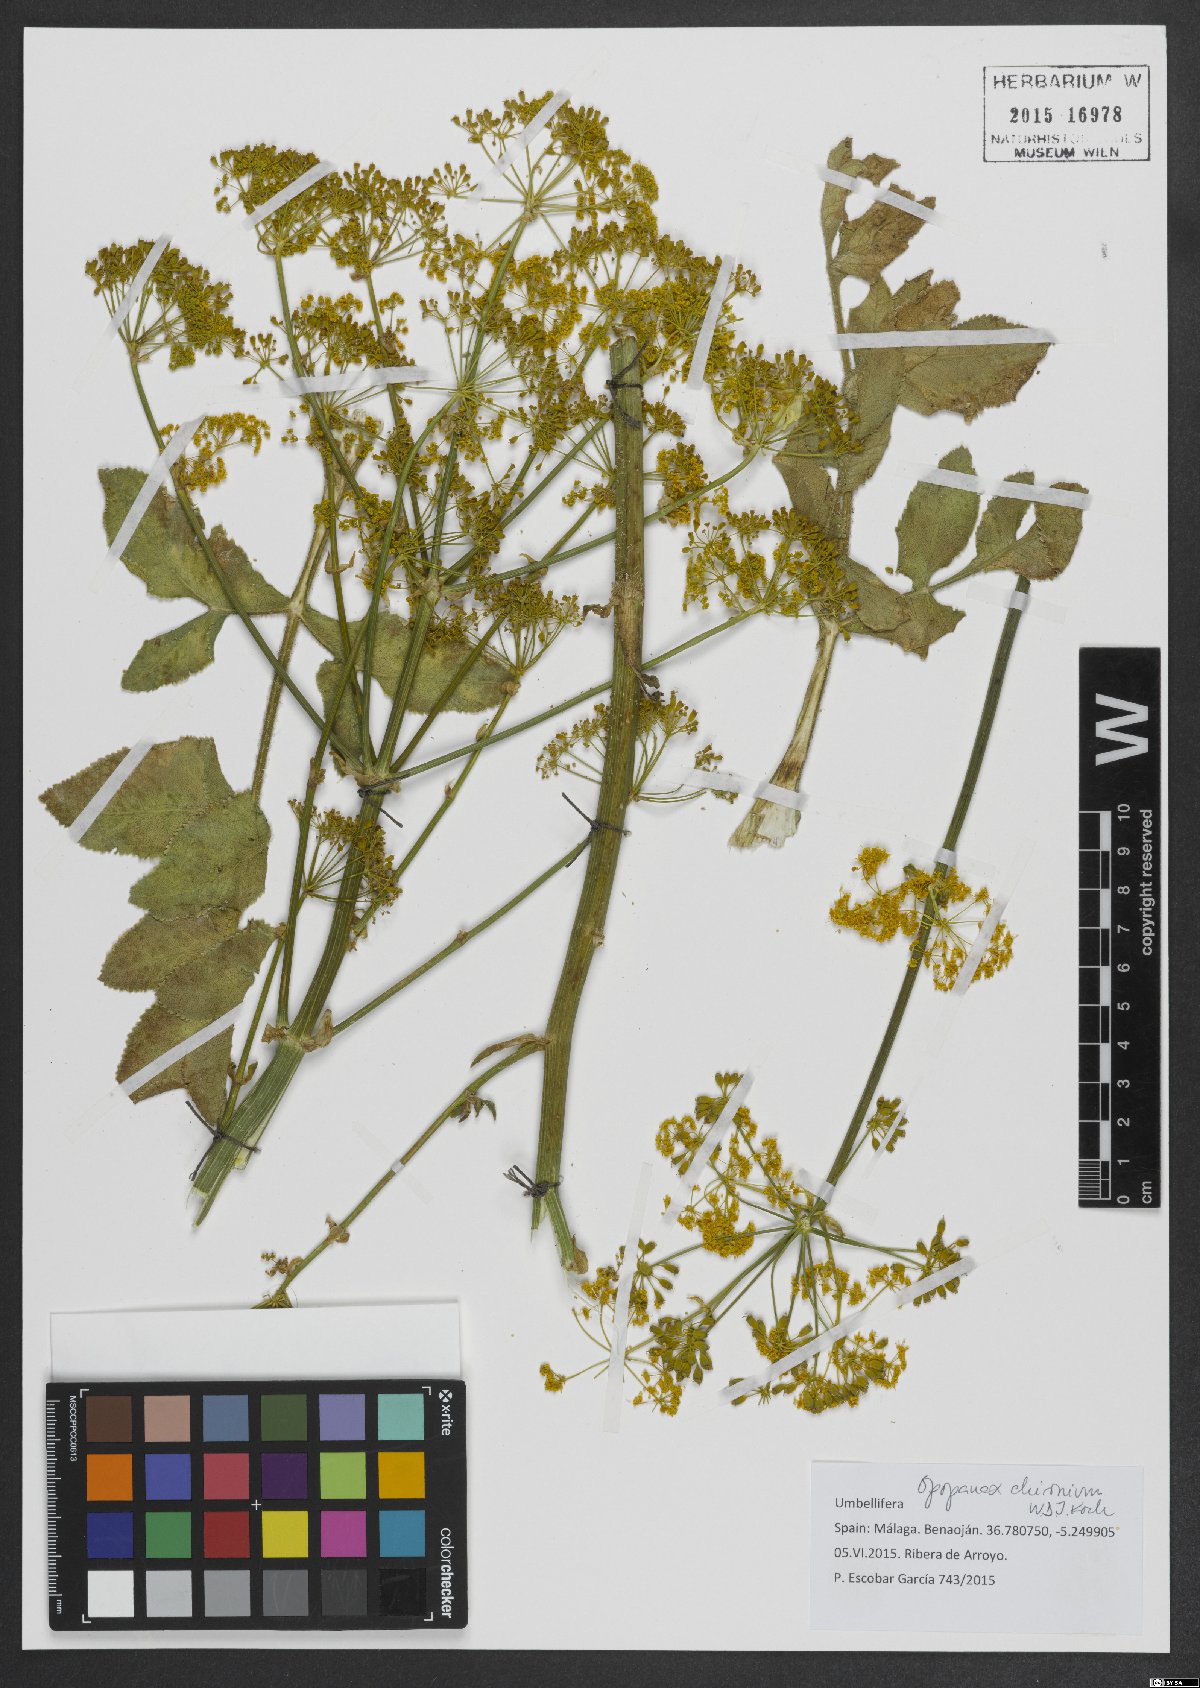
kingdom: Plantae
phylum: Tracheophyta
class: Magnoliopsida
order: Apiales
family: Apiaceae
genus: Opopanax
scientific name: Opopanax chironium
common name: Hercules-all-heal
